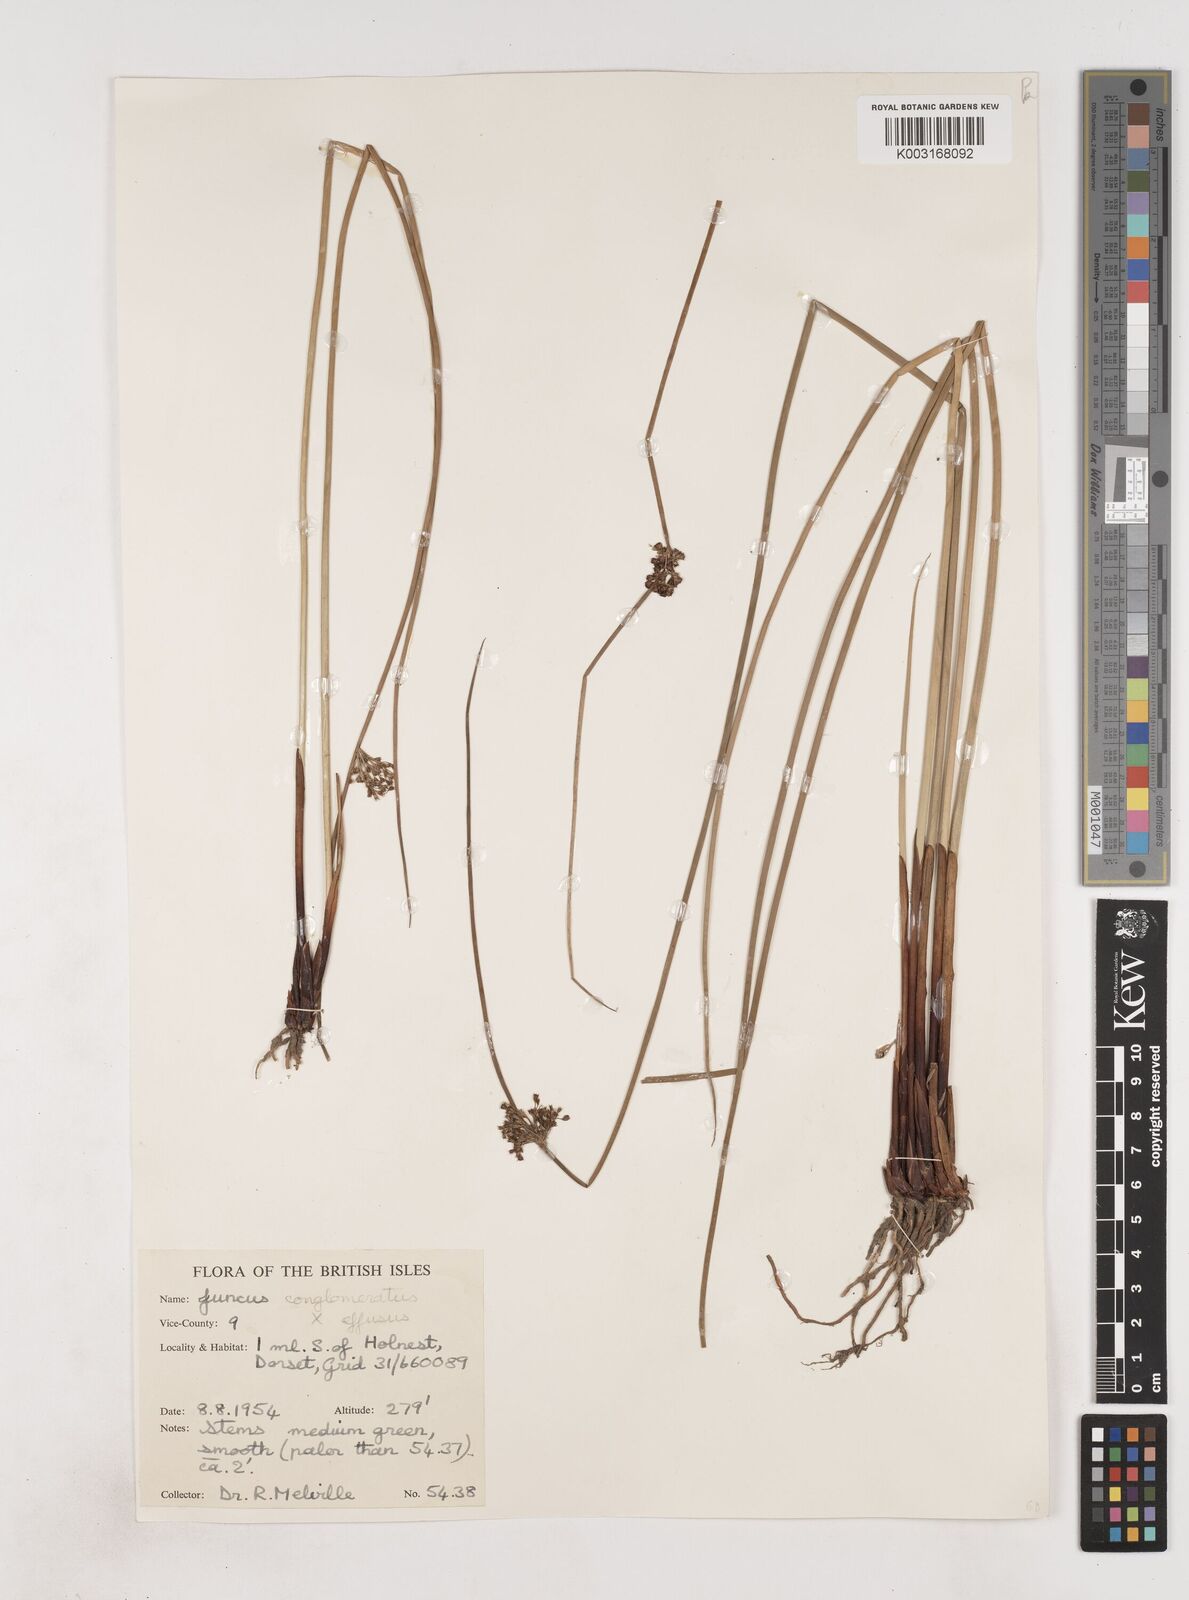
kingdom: Plantae
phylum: Tracheophyta
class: Liliopsida
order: Poales
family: Juncaceae
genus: Juncus
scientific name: Juncus conglomeratus
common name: Compact rush
